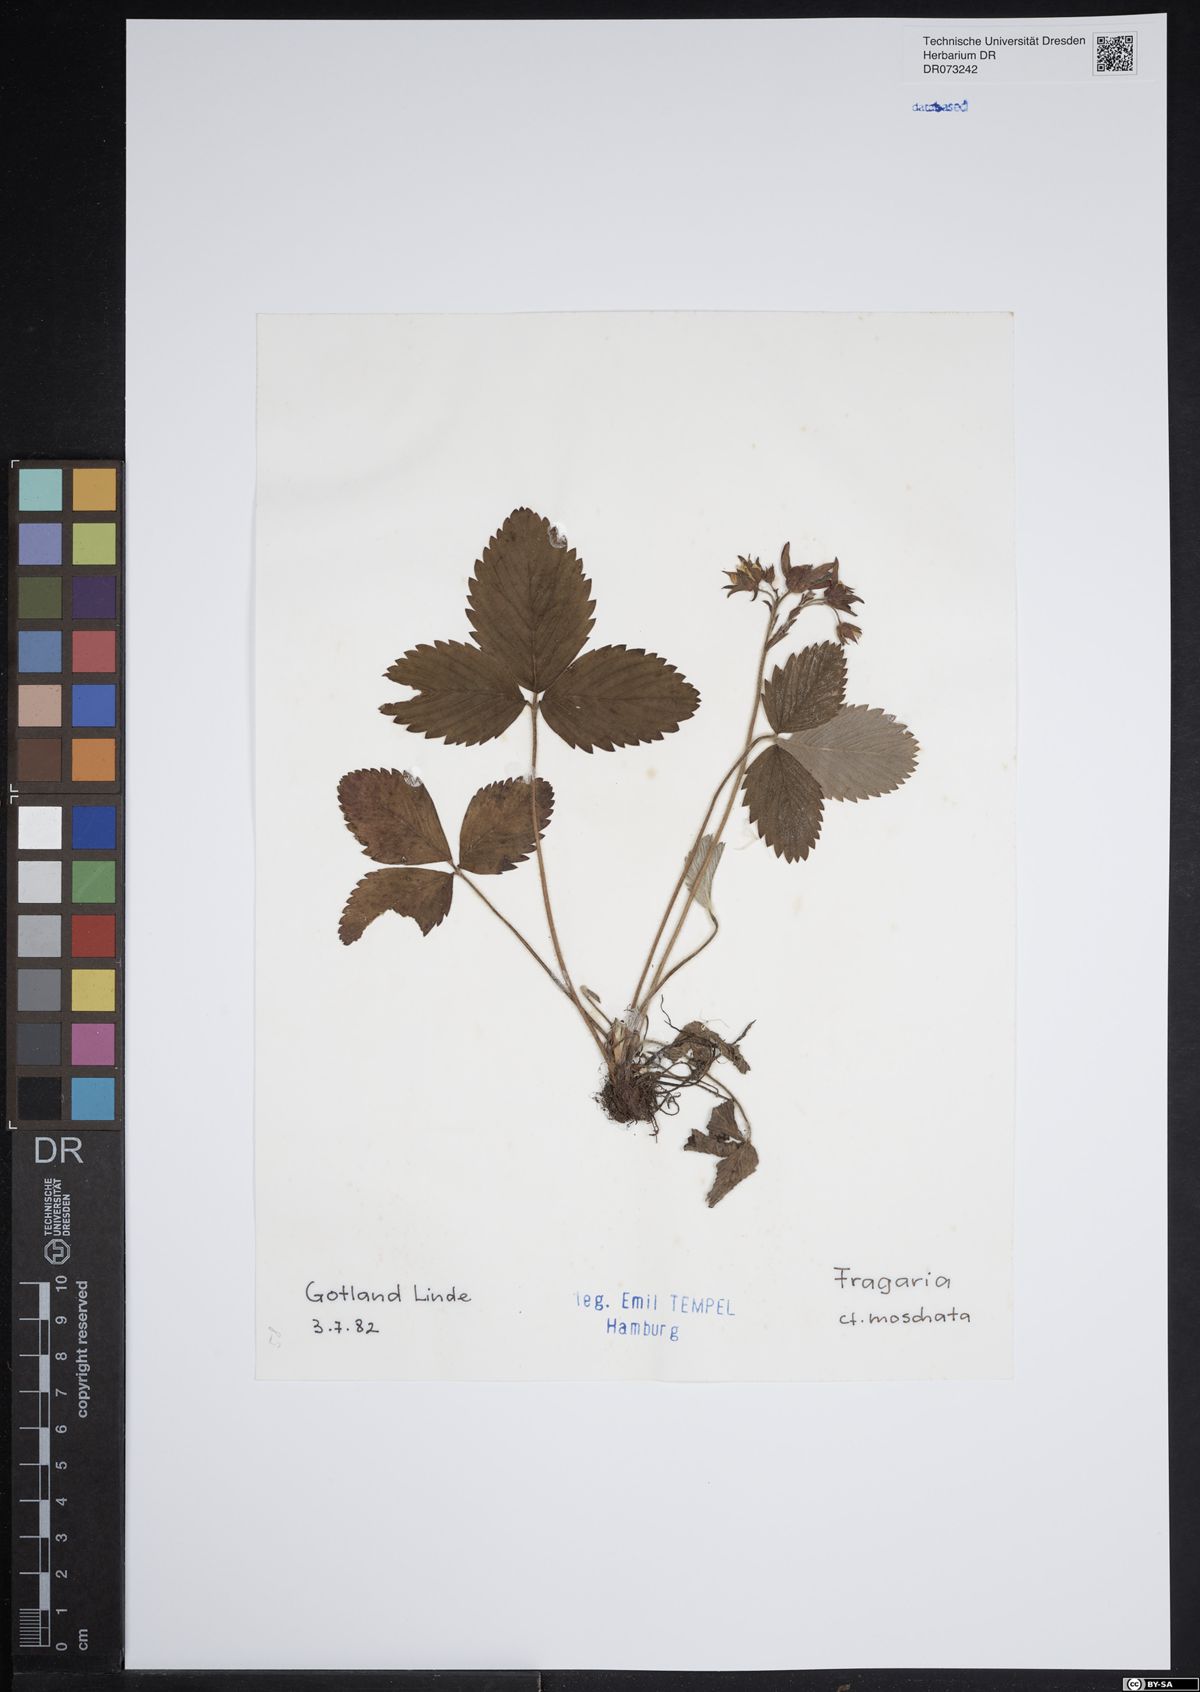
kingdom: Plantae
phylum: Tracheophyta
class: Magnoliopsida
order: Rosales
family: Rosaceae
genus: Fragaria
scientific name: Fragaria moschata
